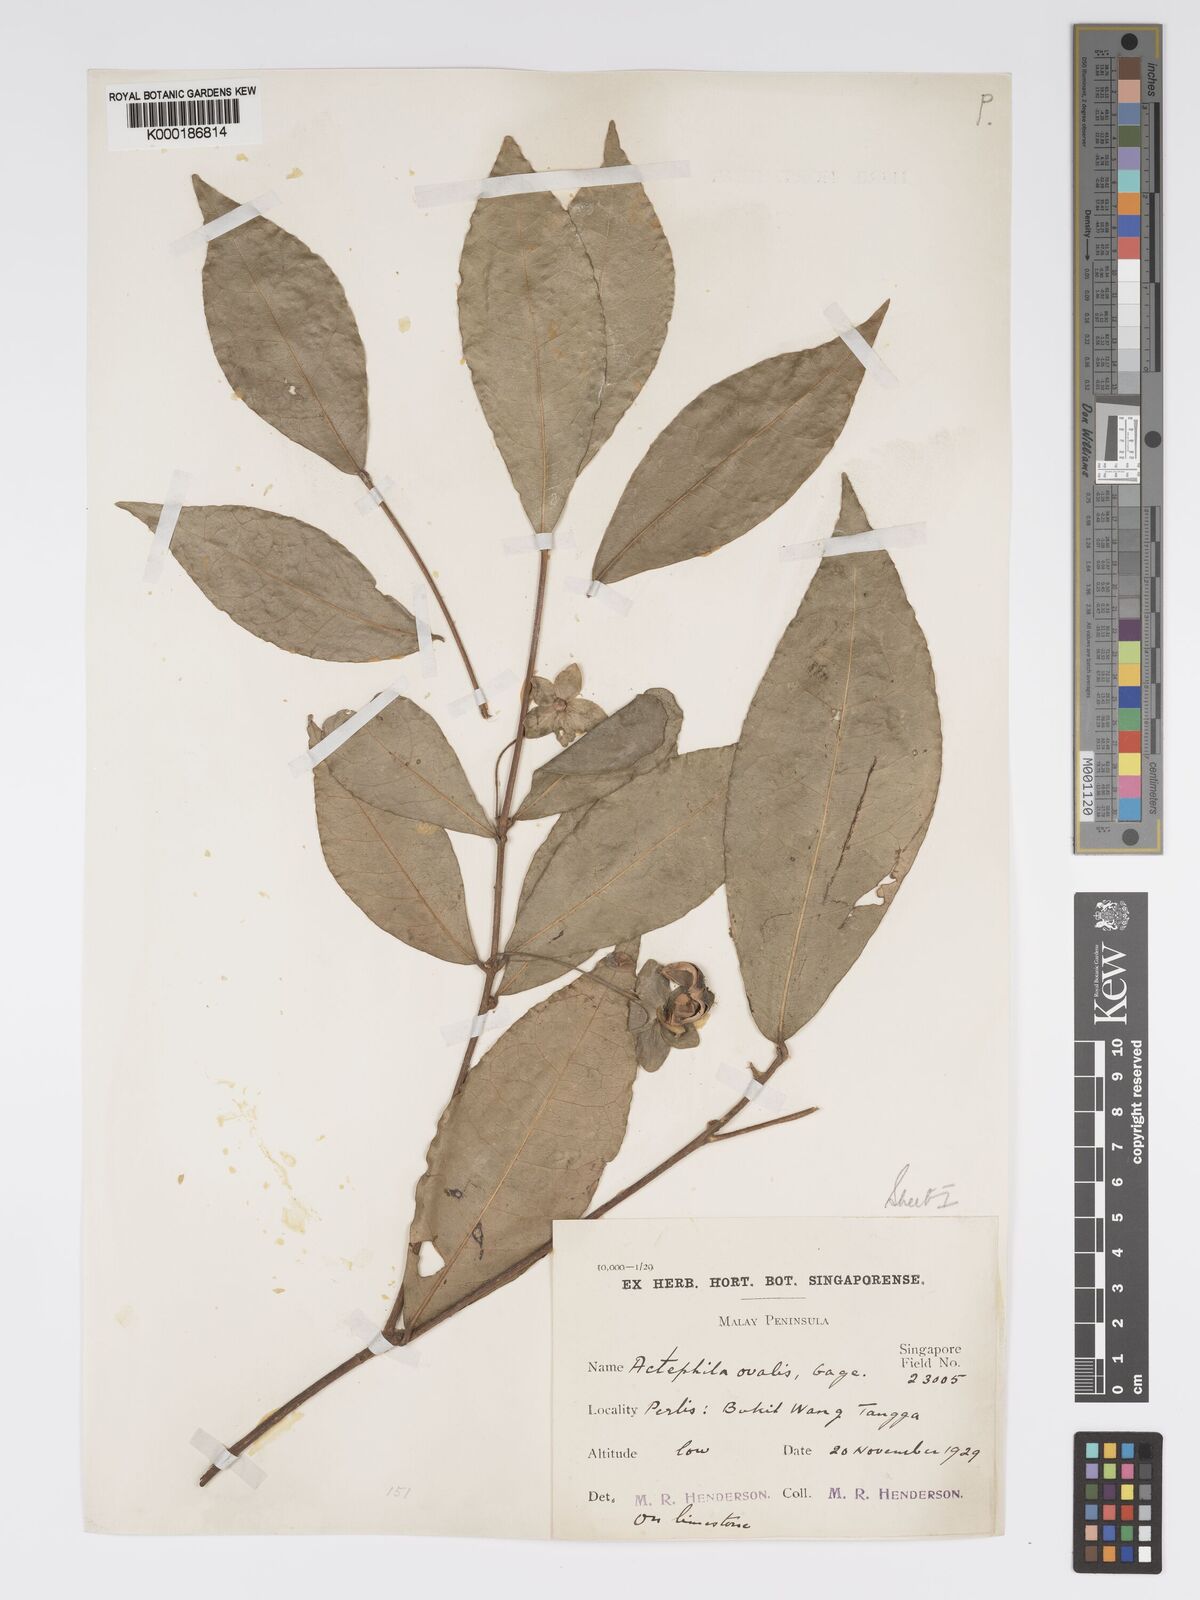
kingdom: Plantae
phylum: Tracheophyta
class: Magnoliopsida
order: Malpighiales
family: Phyllanthaceae
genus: Actephila
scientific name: Actephila ovalis
